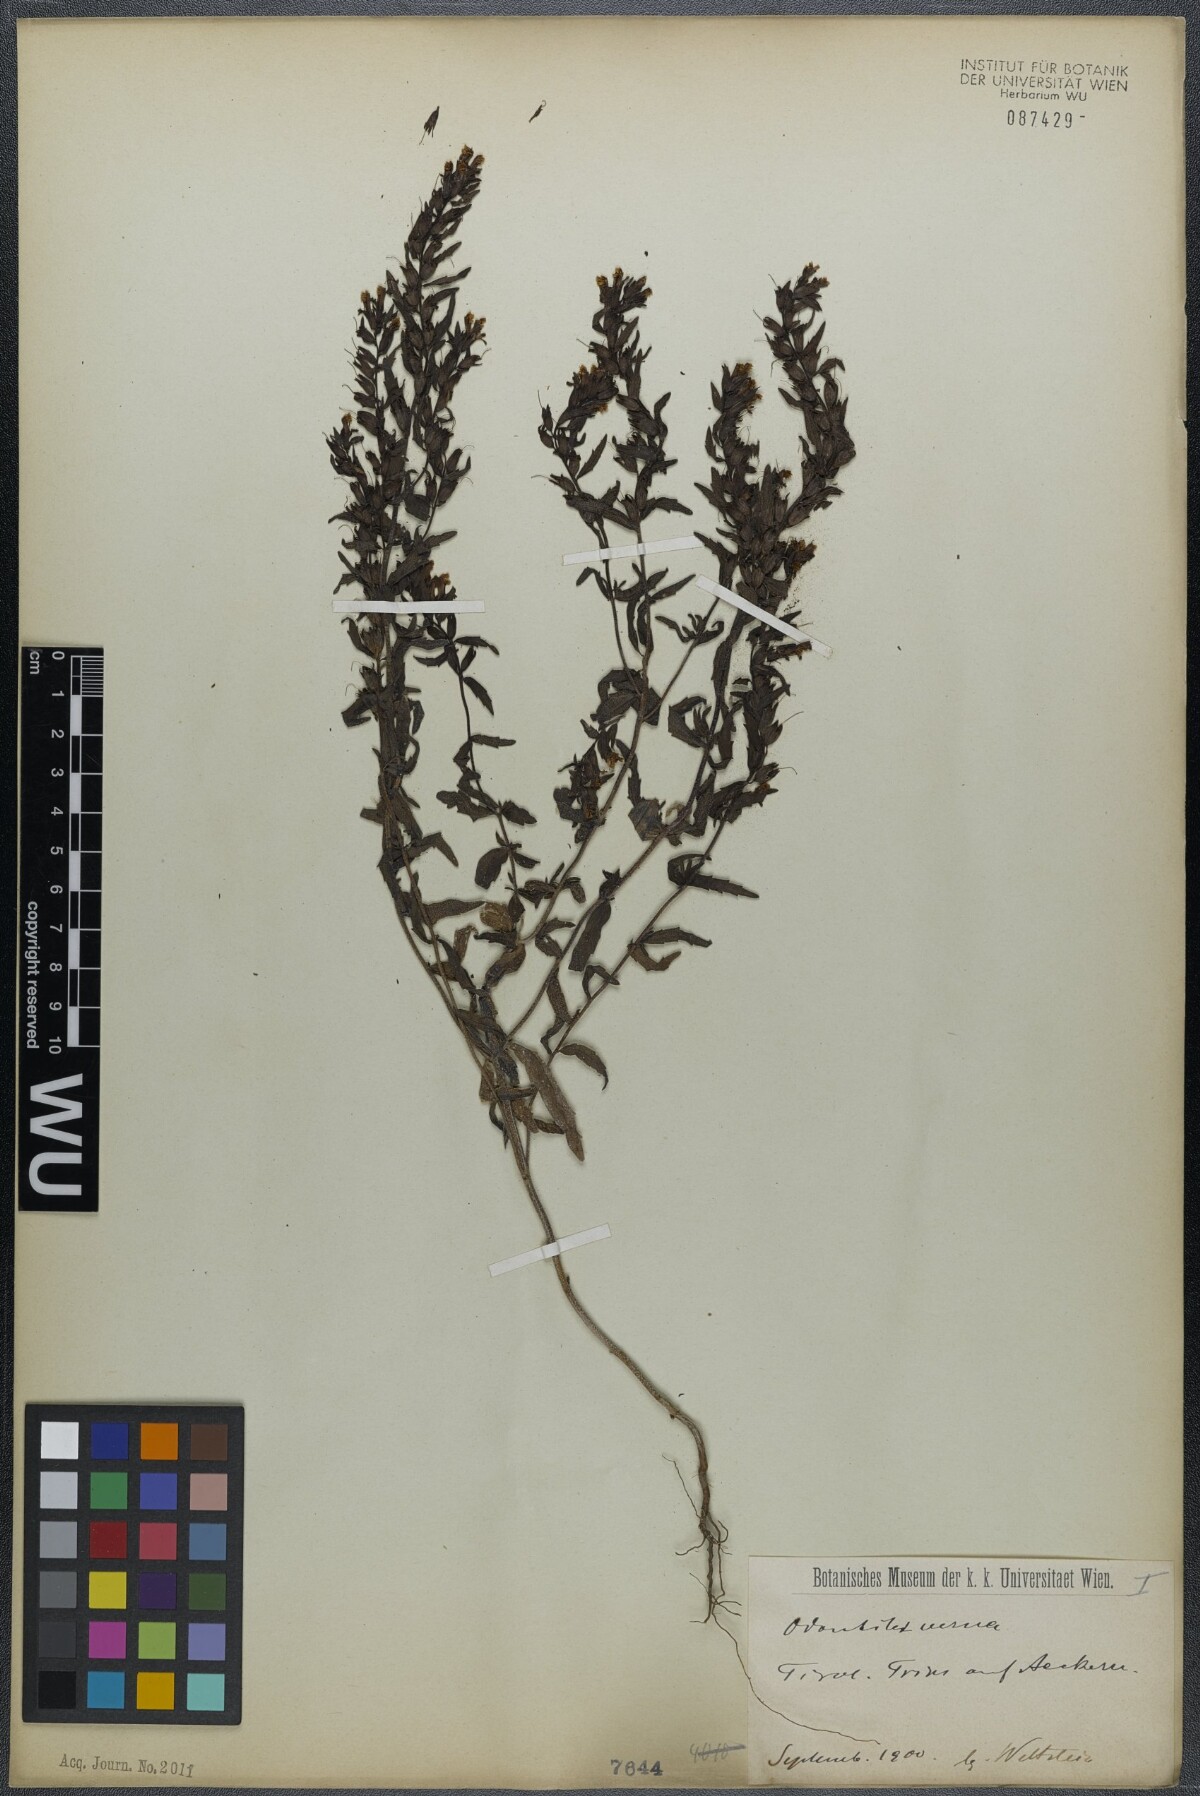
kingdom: Plantae
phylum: Tracheophyta
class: Magnoliopsida
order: Lamiales
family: Orobanchaceae
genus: Odontites
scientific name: Odontites vernus
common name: Red bartsia
